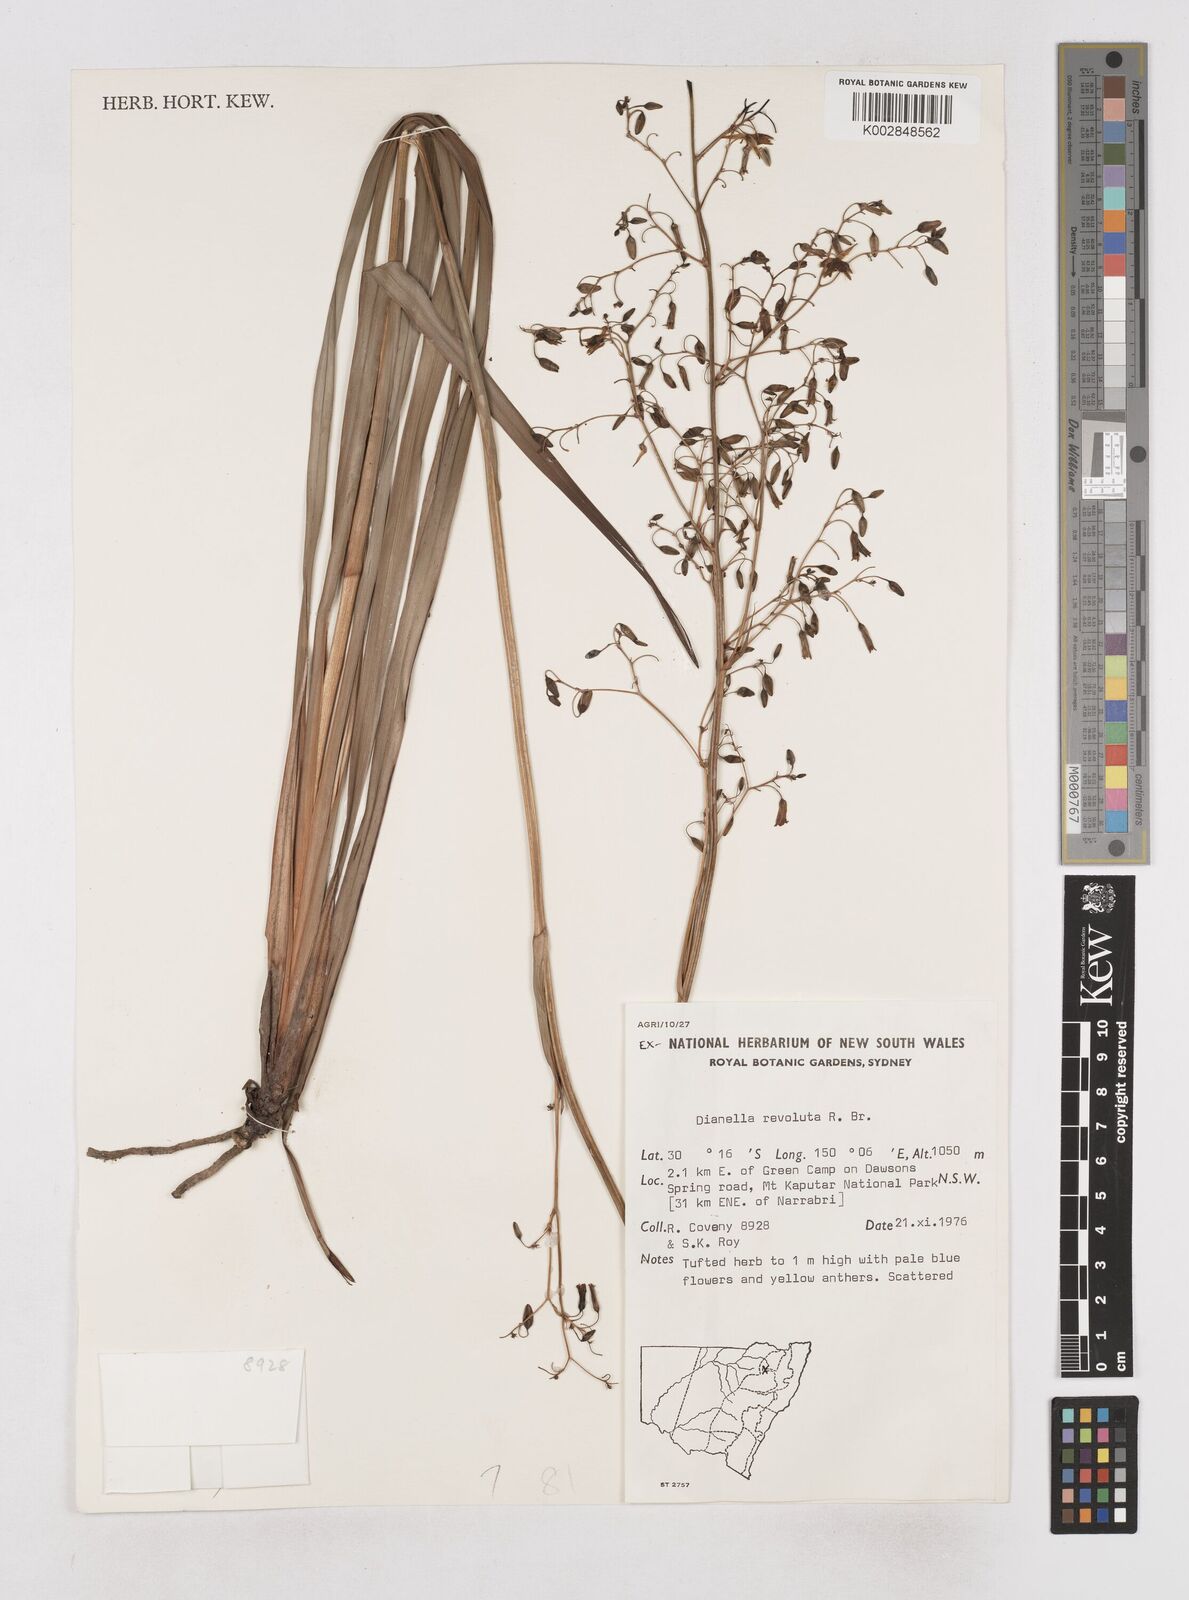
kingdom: Plantae
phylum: Tracheophyta
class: Liliopsida
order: Asparagales
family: Asphodelaceae
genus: Dianella
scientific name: Dianella revoluta
